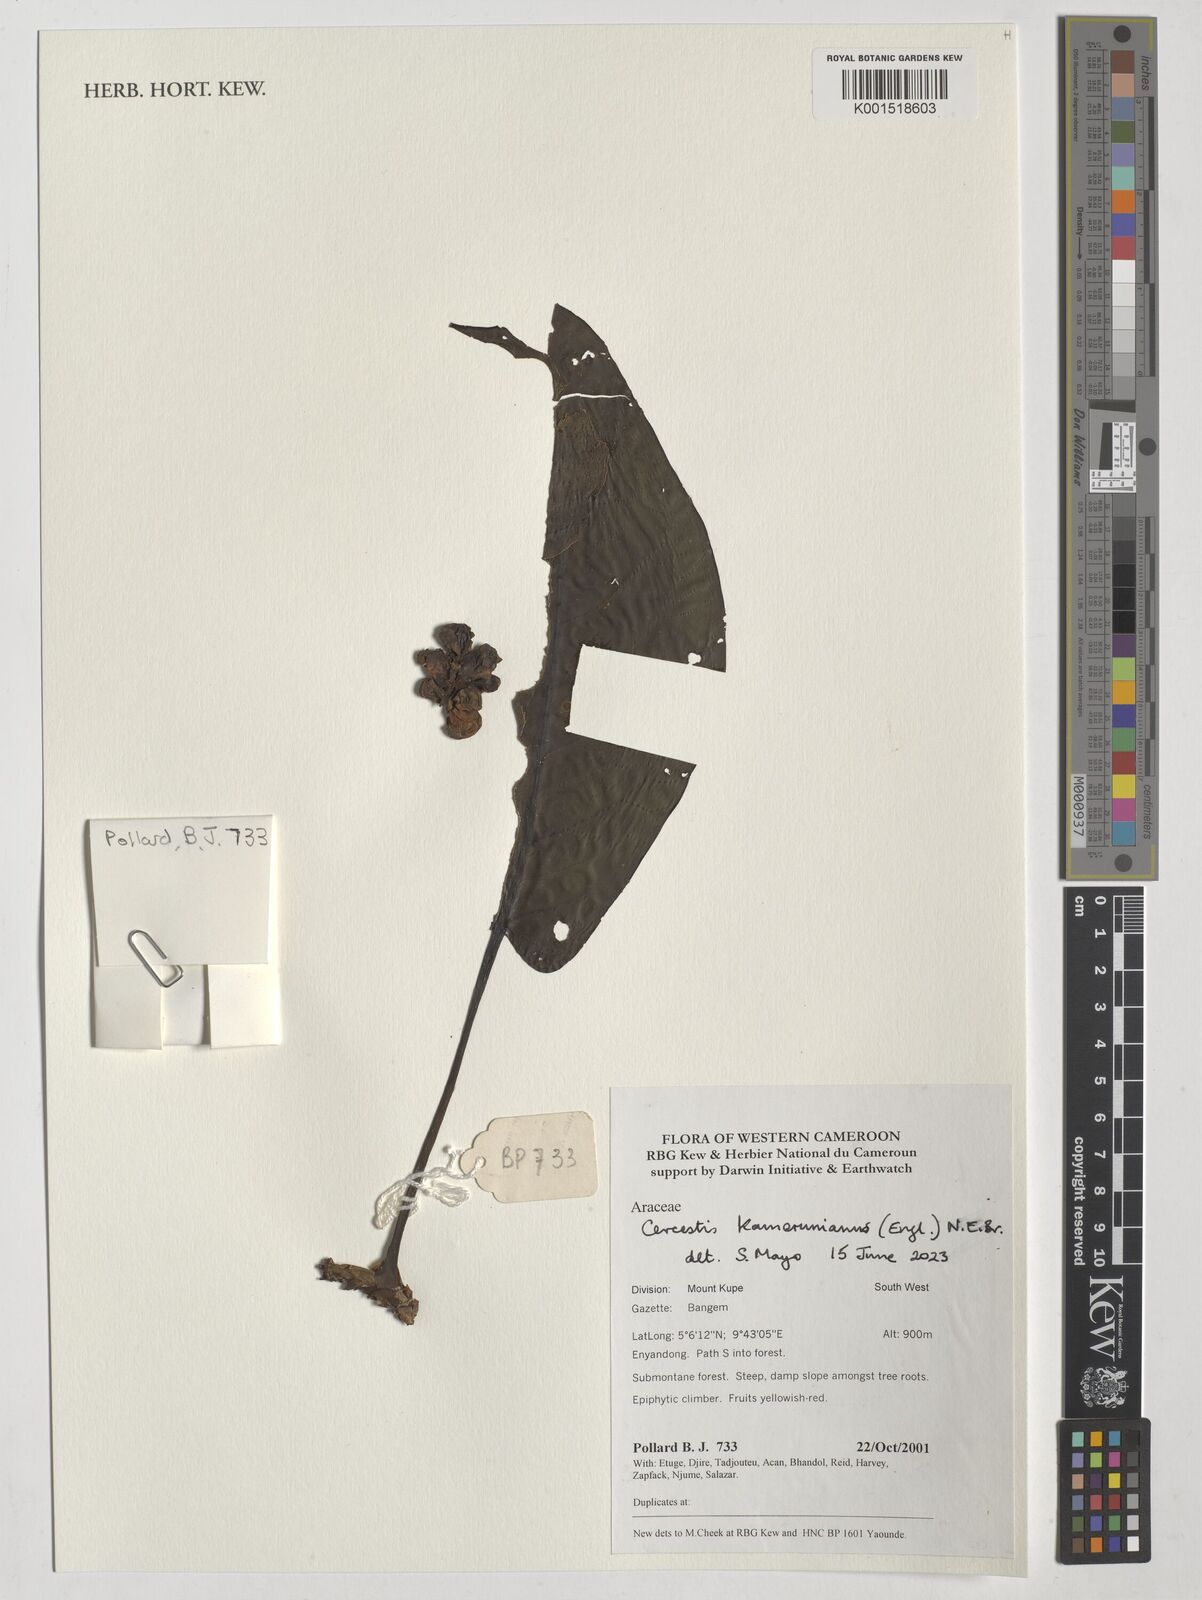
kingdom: Plantae
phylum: Tracheophyta
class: Liliopsida
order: Alismatales
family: Araceae
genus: Cercestis
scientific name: Cercestis kamerunianus
